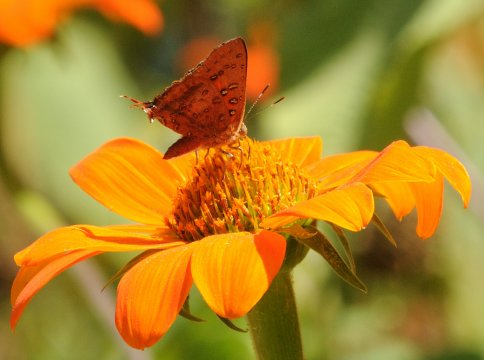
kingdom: Animalia
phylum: Arthropoda
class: Insecta
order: Lepidoptera
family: Lycaenidae
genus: Axiocerses
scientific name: Axiocerses bambana
